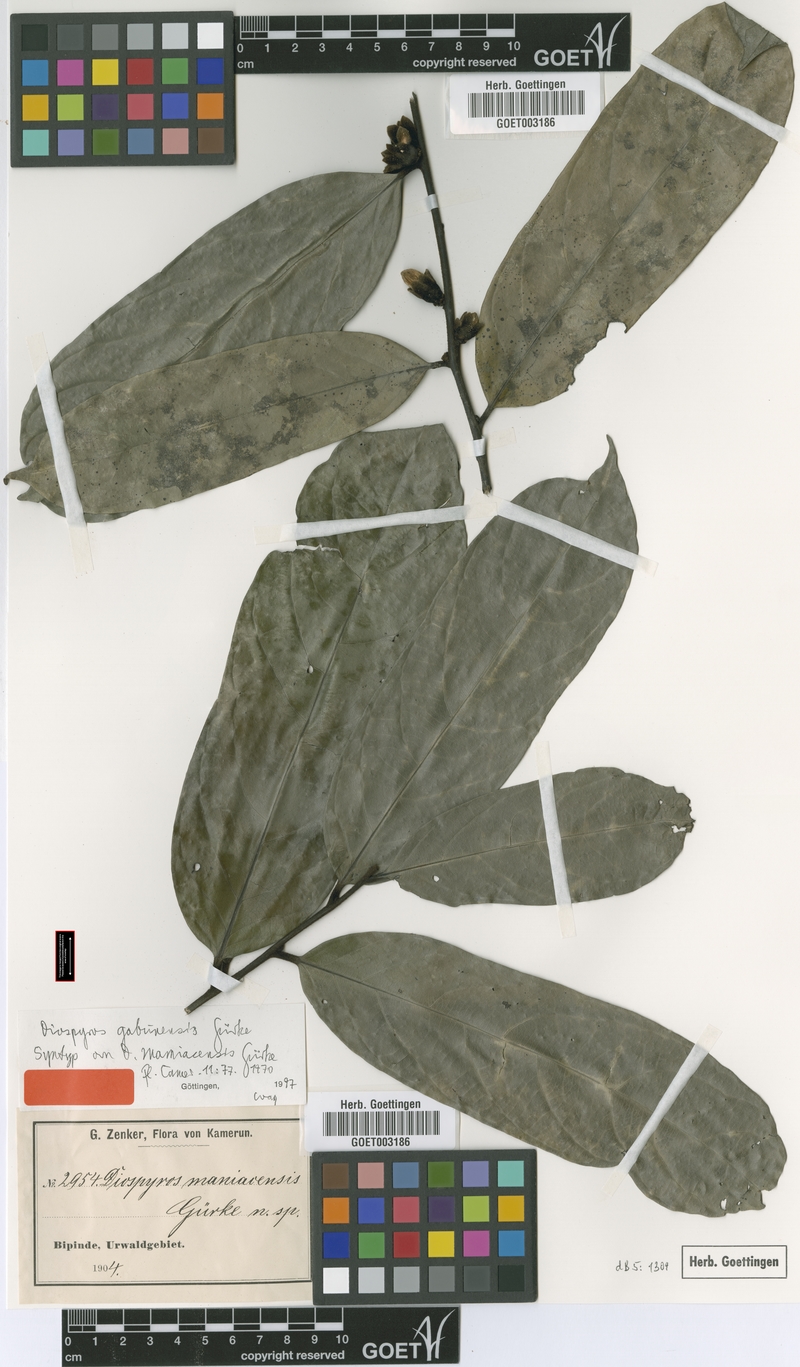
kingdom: Plantae
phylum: Tracheophyta
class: Magnoliopsida
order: Ericales
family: Ebenaceae
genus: Diospyros
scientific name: Diospyros gabunensis
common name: Flint bark tree
